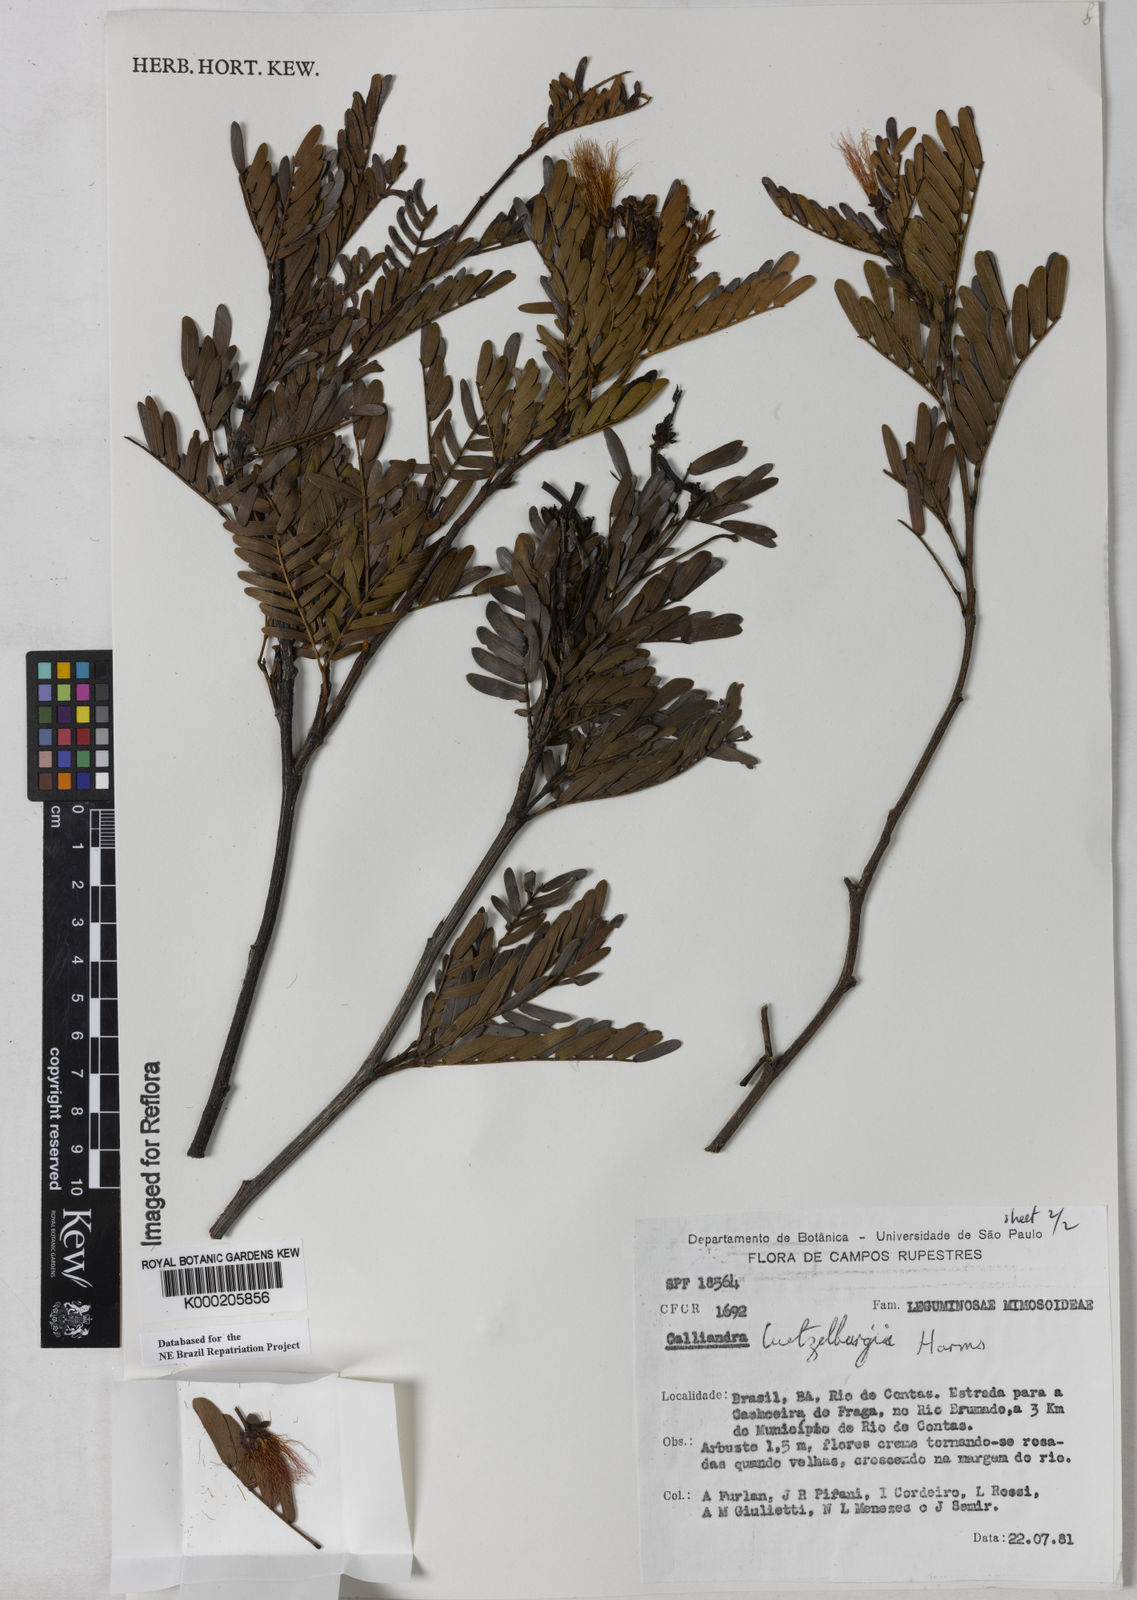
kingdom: Plantae
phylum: Tracheophyta
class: Magnoliopsida
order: Fabales
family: Fabaceae
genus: Calliandra
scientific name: Calliandra luetzelburgii
